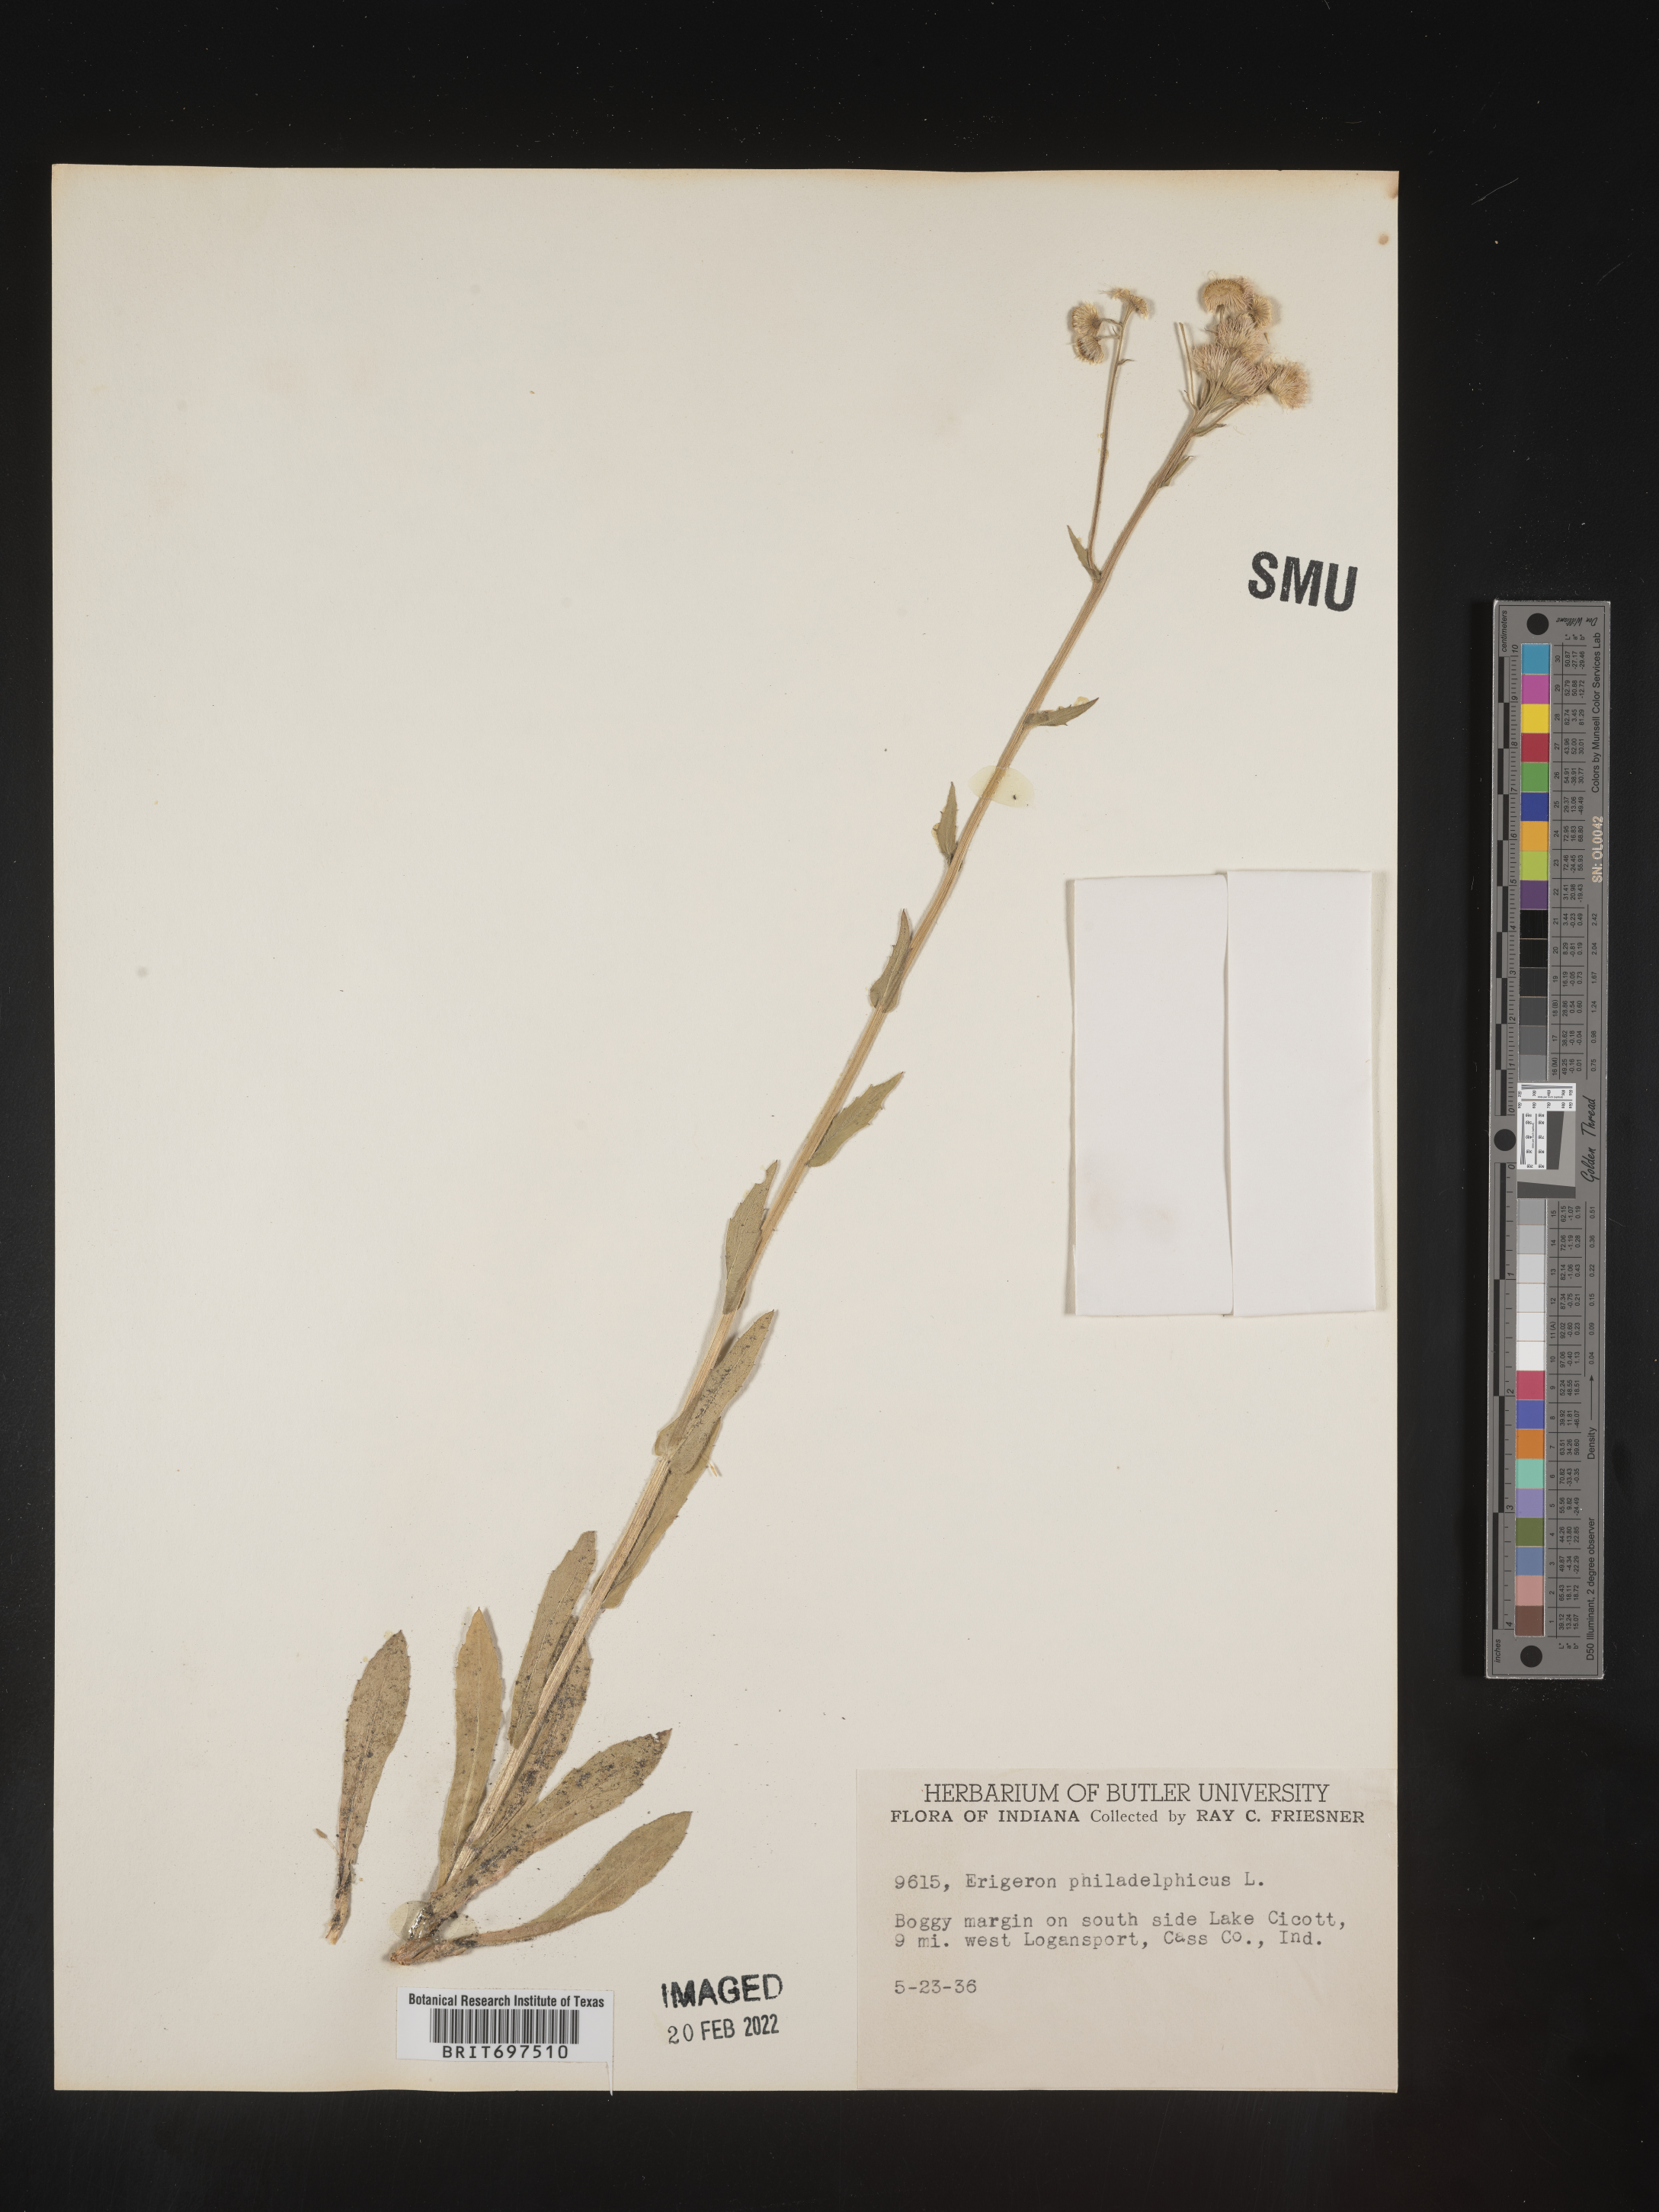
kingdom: Plantae
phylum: Tracheophyta
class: Magnoliopsida
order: Asterales
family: Asteraceae
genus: Erigeron
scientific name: Erigeron philadelphicus
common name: Robin's-plantain
